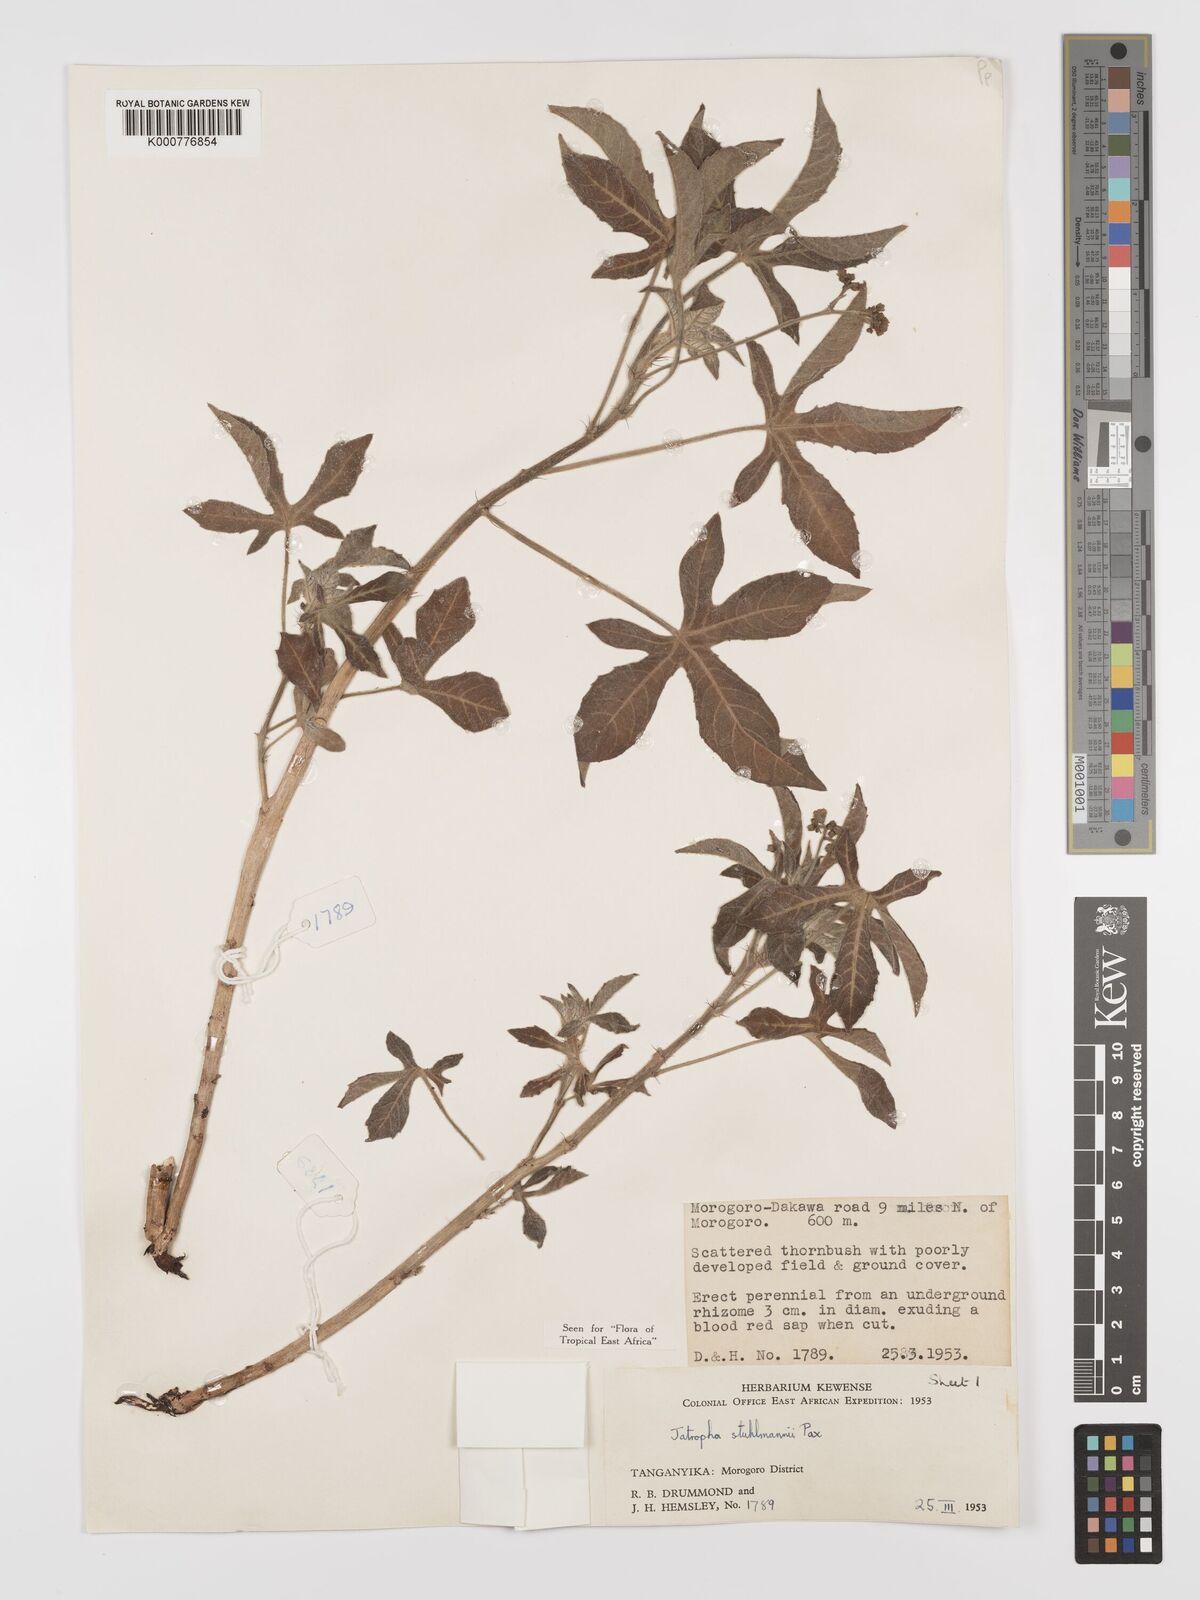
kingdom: Plantae
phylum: Tracheophyta
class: Magnoliopsida
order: Malpighiales
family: Euphorbiaceae
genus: Jatropha
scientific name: Jatropha stuhlmannii
